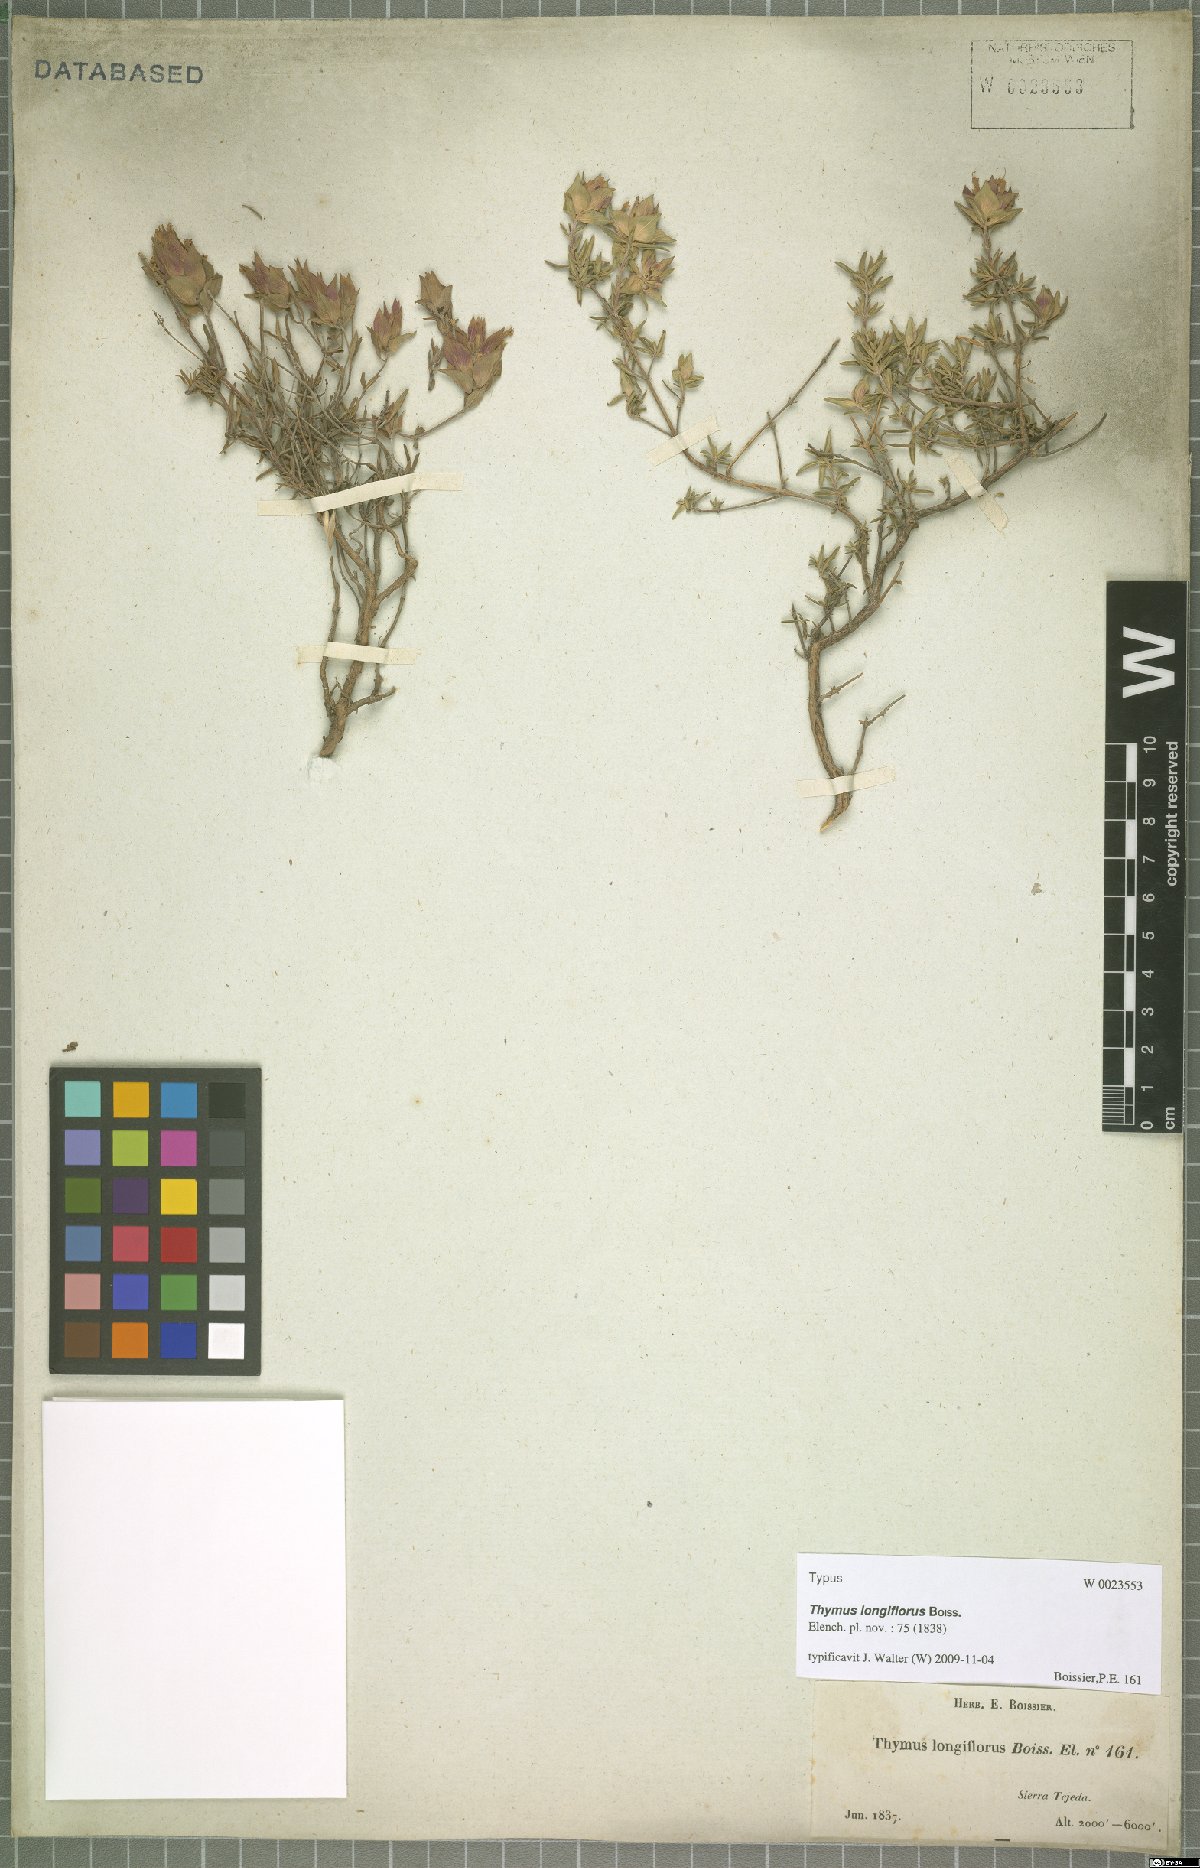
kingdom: Plantae
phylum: Tracheophyta
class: Magnoliopsida
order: Lamiales
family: Lamiaceae
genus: Thymus
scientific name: Thymus longiflorus
